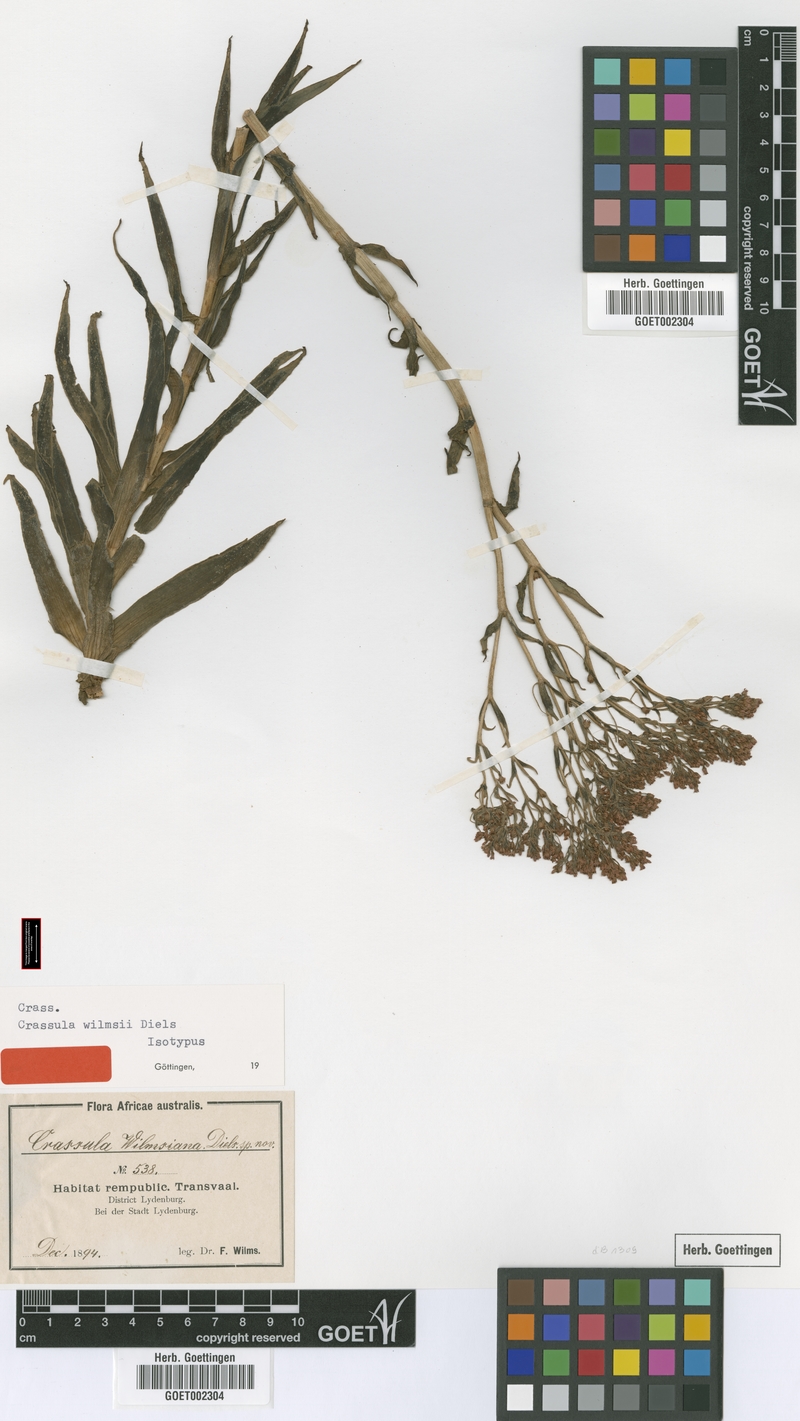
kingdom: Plantae
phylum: Tracheophyta
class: Magnoliopsida
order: Saxifragales
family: Crassulaceae
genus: Crassula
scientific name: Crassula alba
